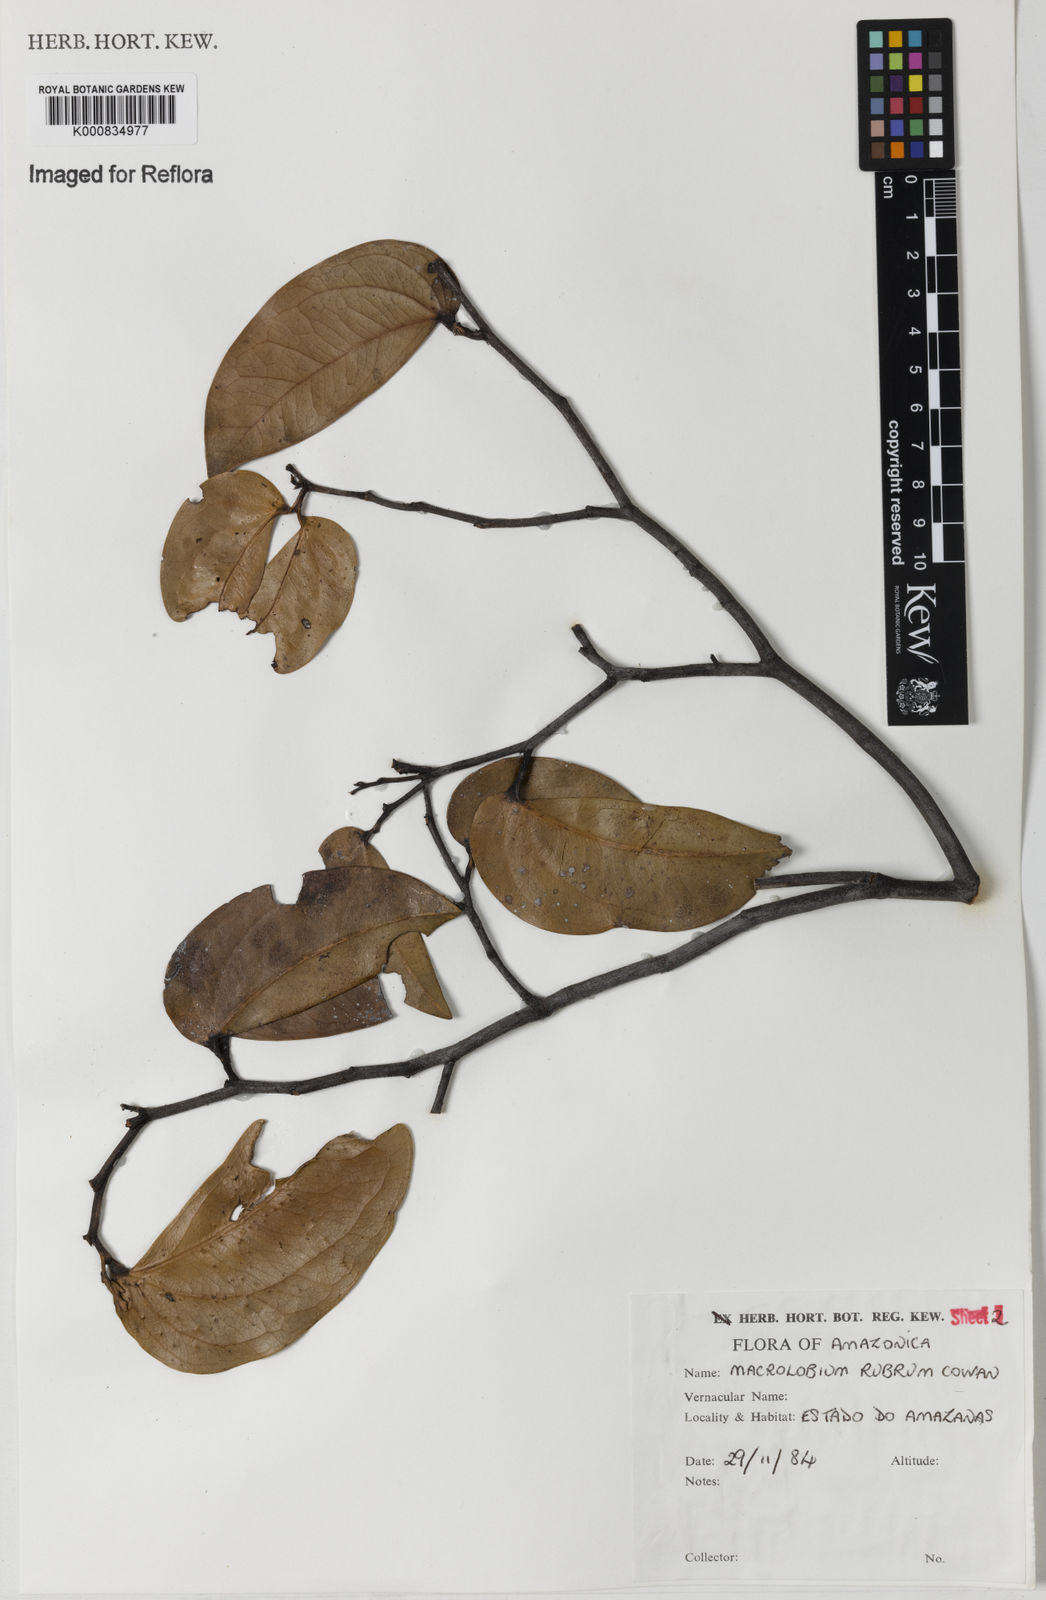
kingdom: Plantae
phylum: Tracheophyta
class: Magnoliopsida
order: Fabales
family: Fabaceae
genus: Macrolobium
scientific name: Macrolobium rubrum
